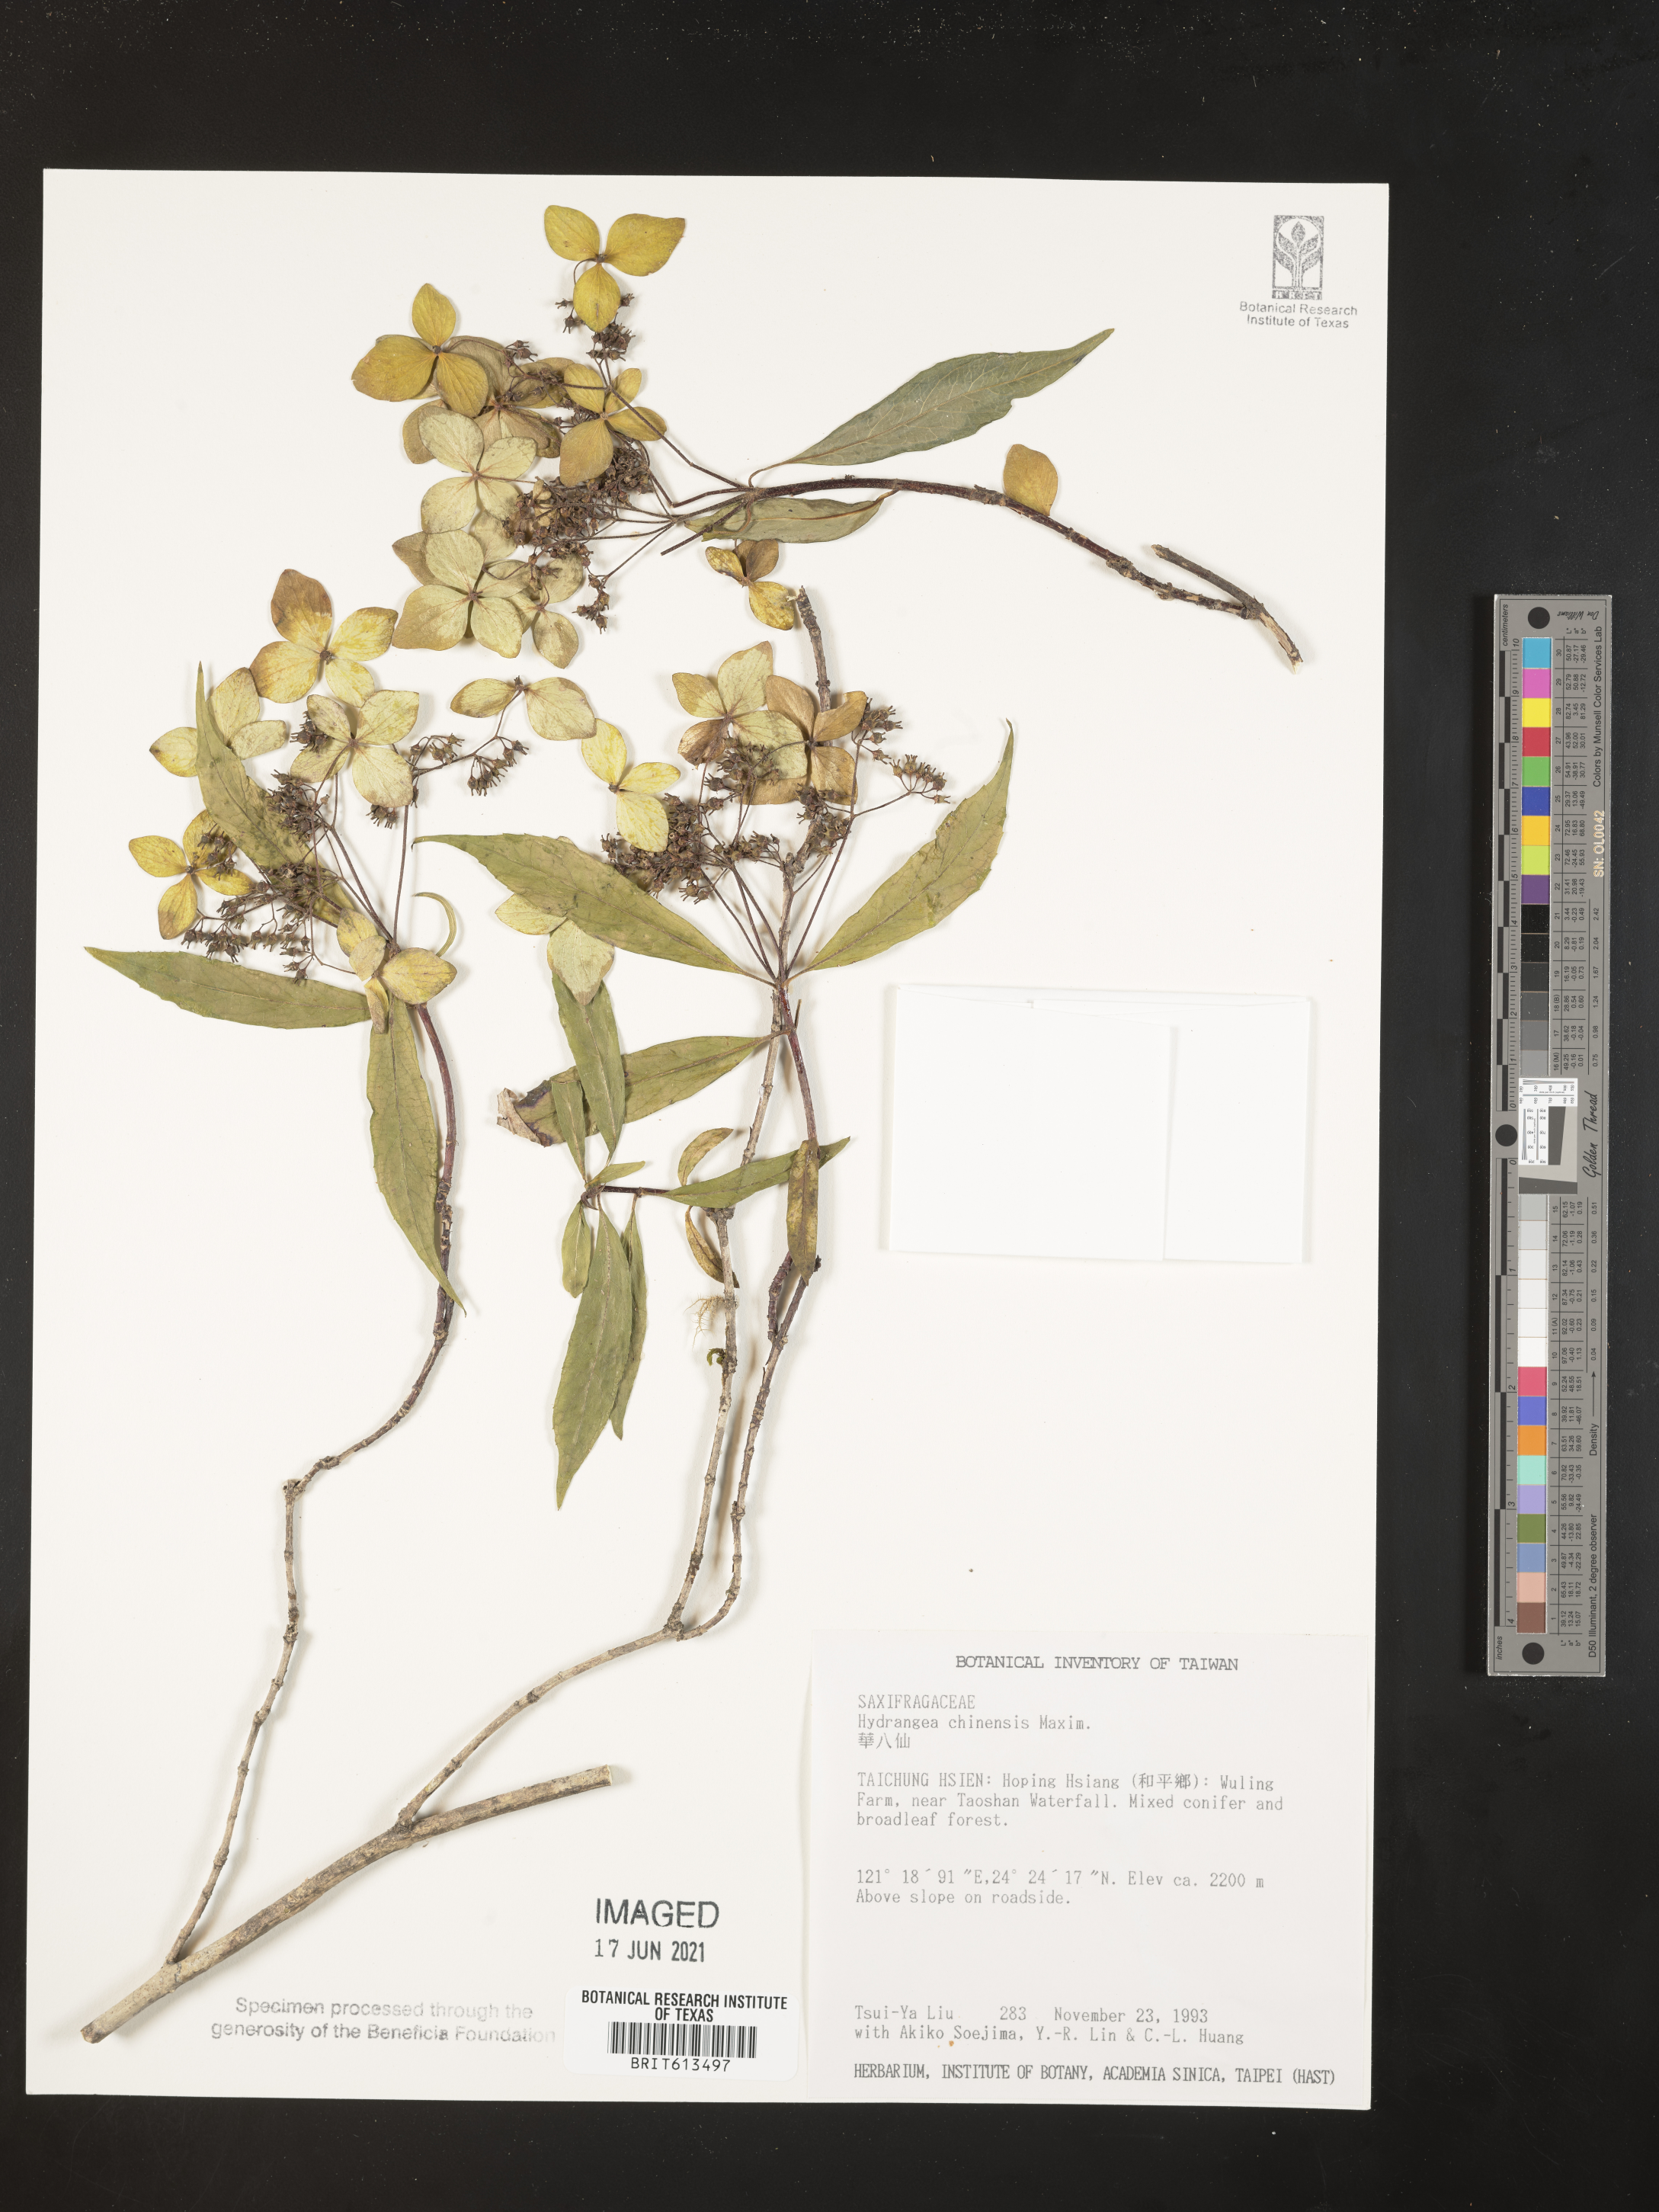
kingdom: Plantae
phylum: Tracheophyta
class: Magnoliopsida
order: Cornales
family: Hydrangeaceae
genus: Hydrangea
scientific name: Hydrangea chinensis
